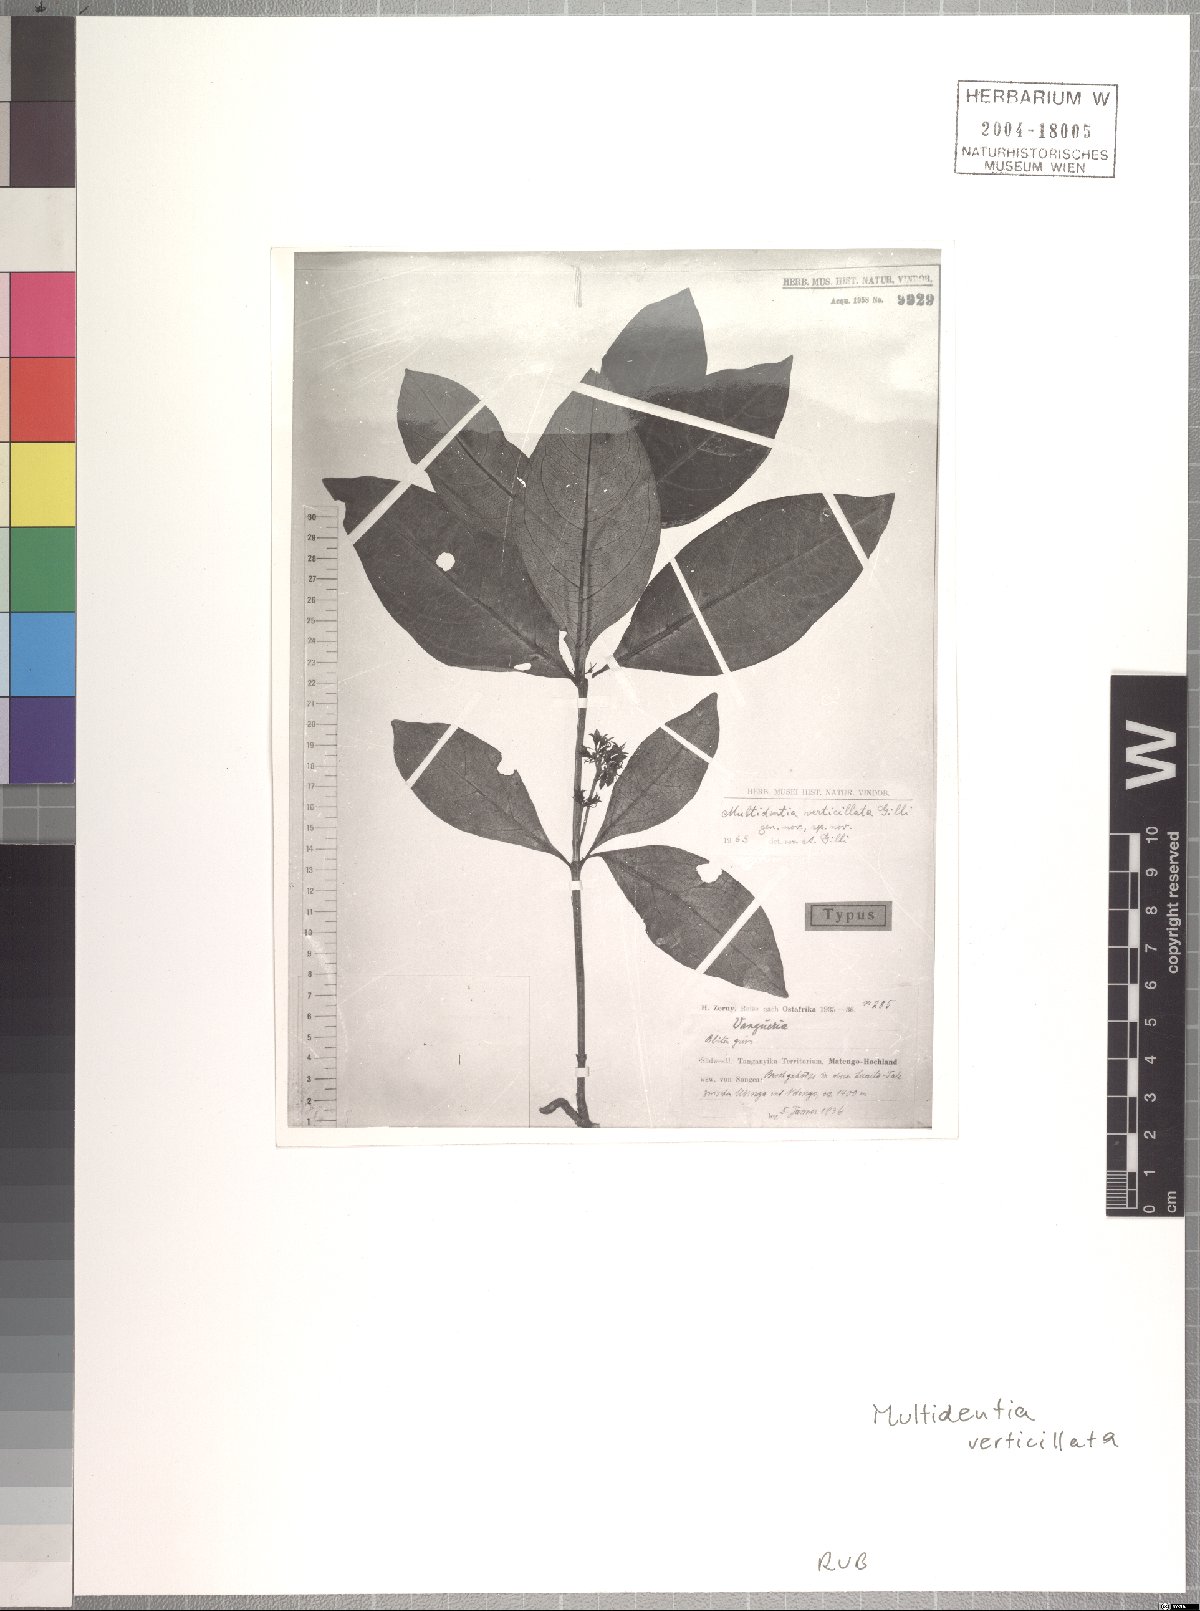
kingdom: Plantae
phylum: Tracheophyta
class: Magnoliopsida
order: Gentianales
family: Rubiaceae
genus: Multidentia
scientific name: Multidentia concrescens
